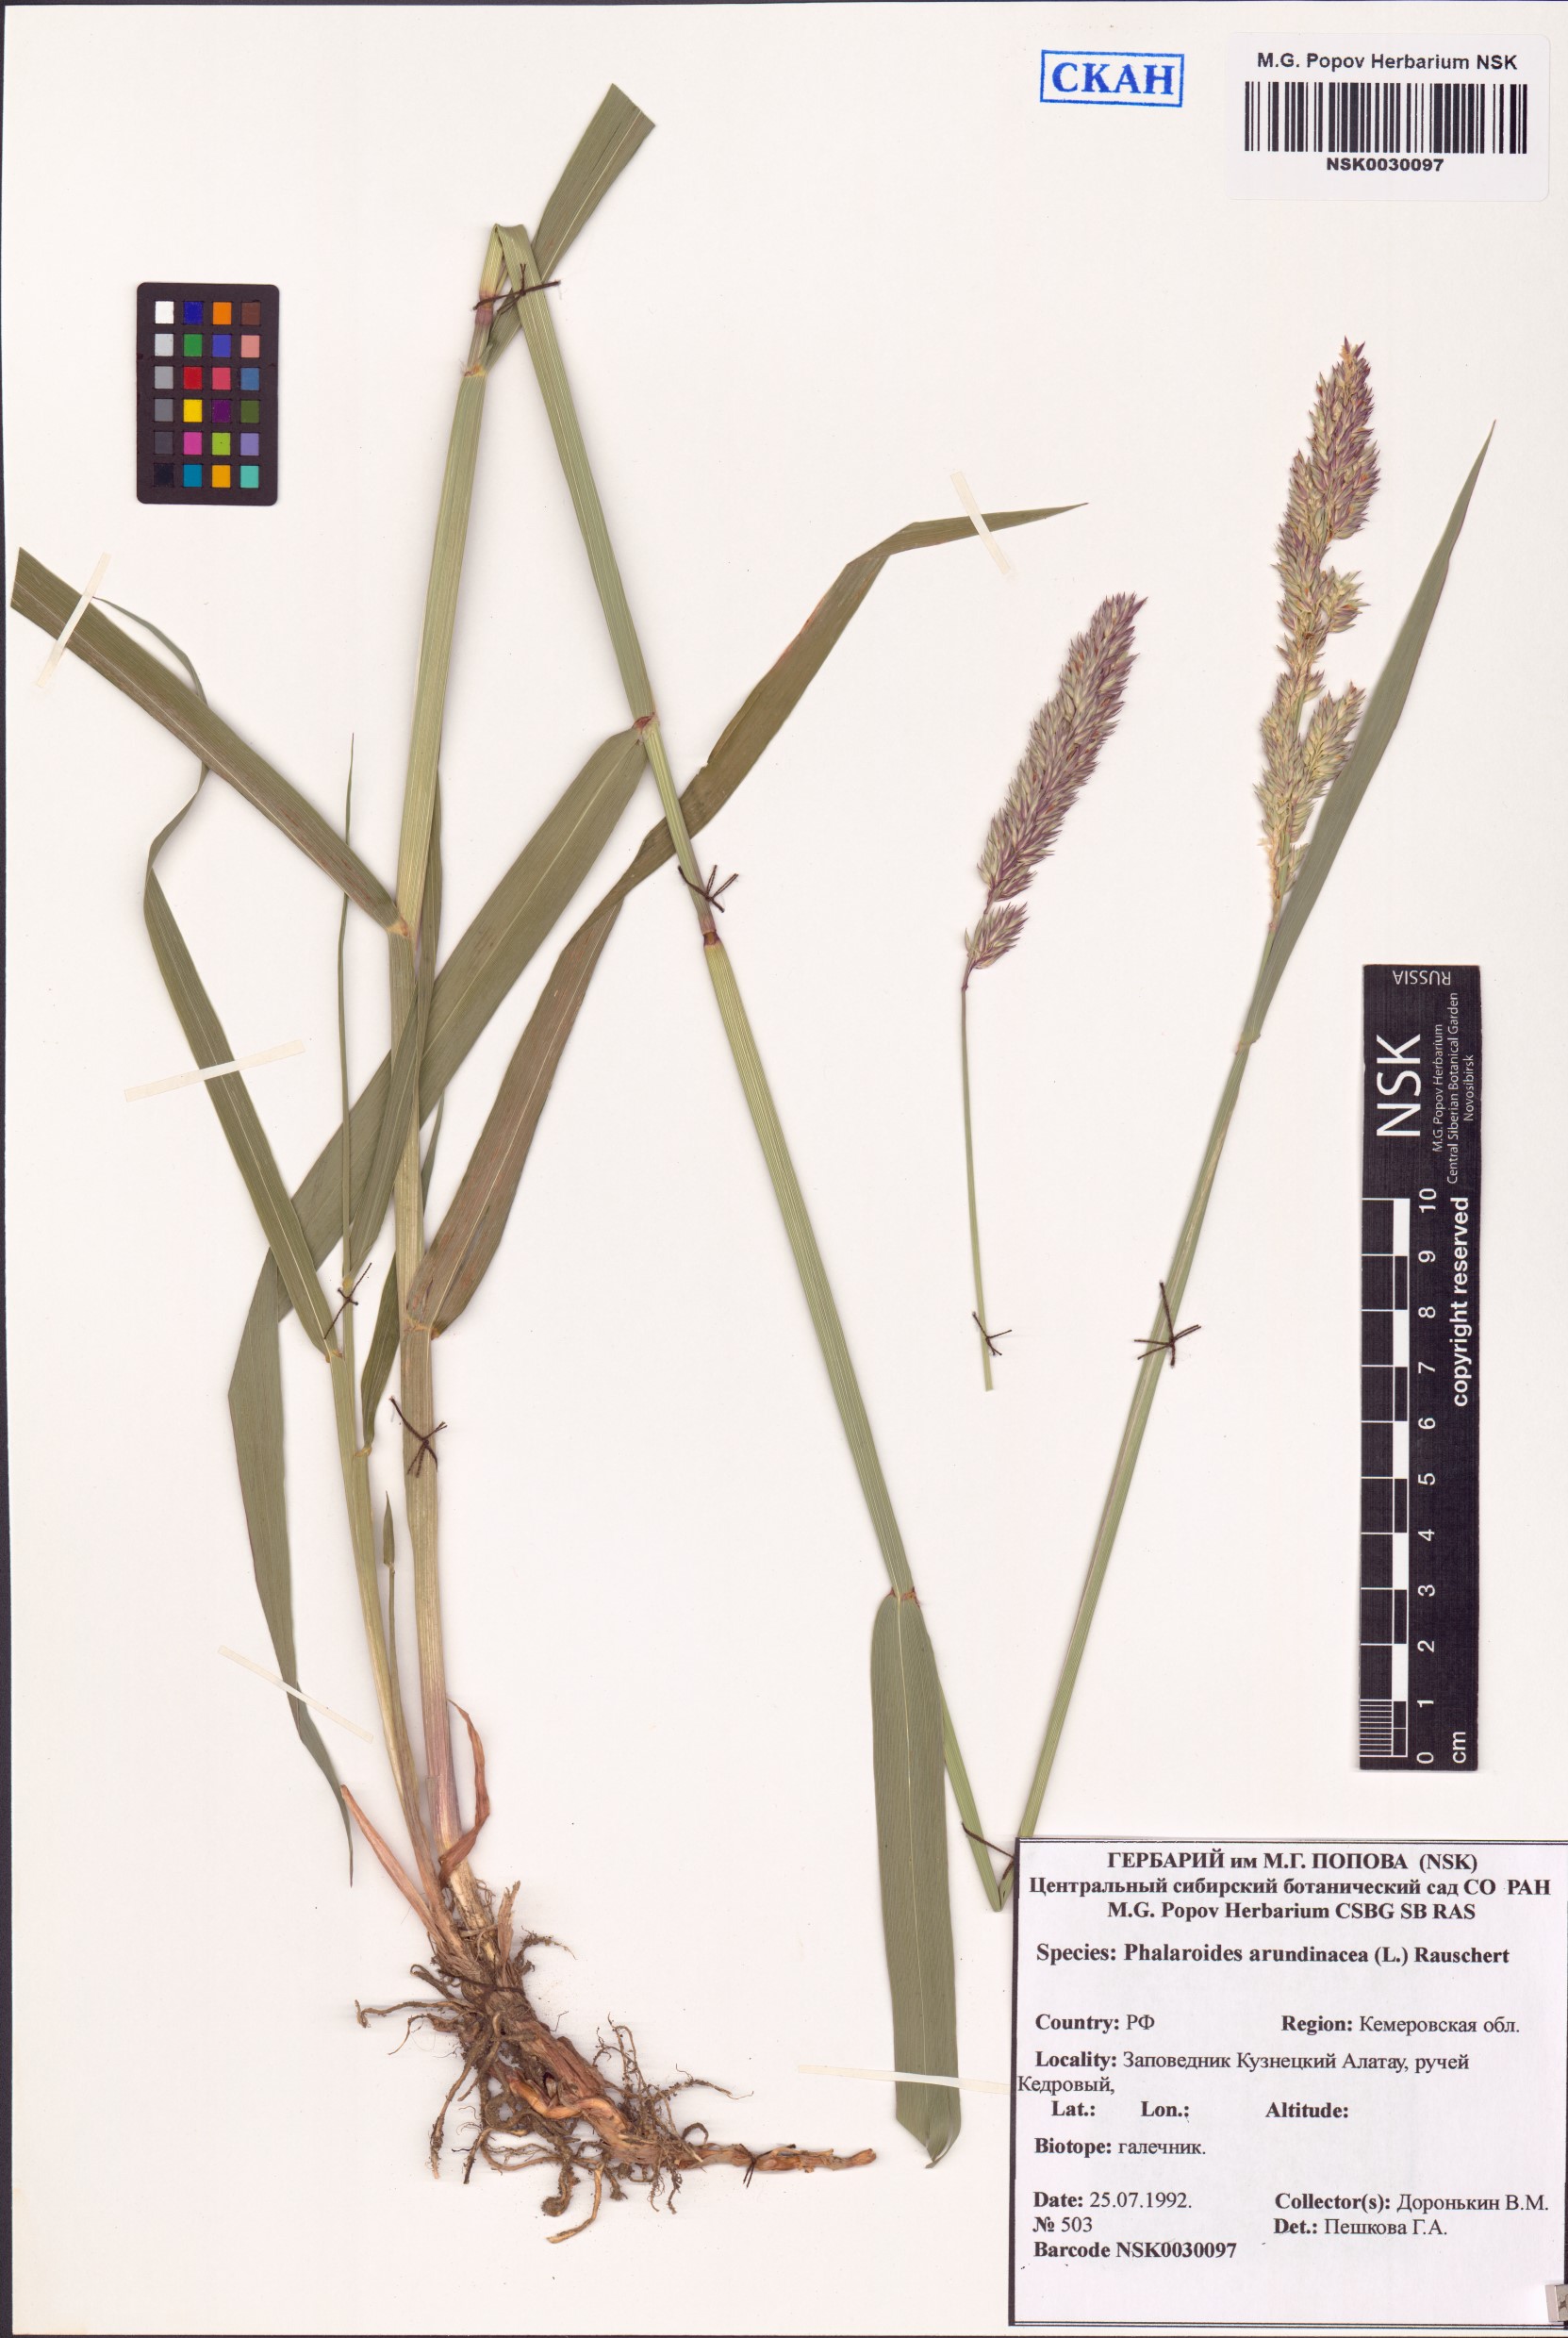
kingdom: Plantae
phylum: Tracheophyta
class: Liliopsida
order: Poales
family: Poaceae
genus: Phalaris
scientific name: Phalaris arundinacea
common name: Reed canary-grass
